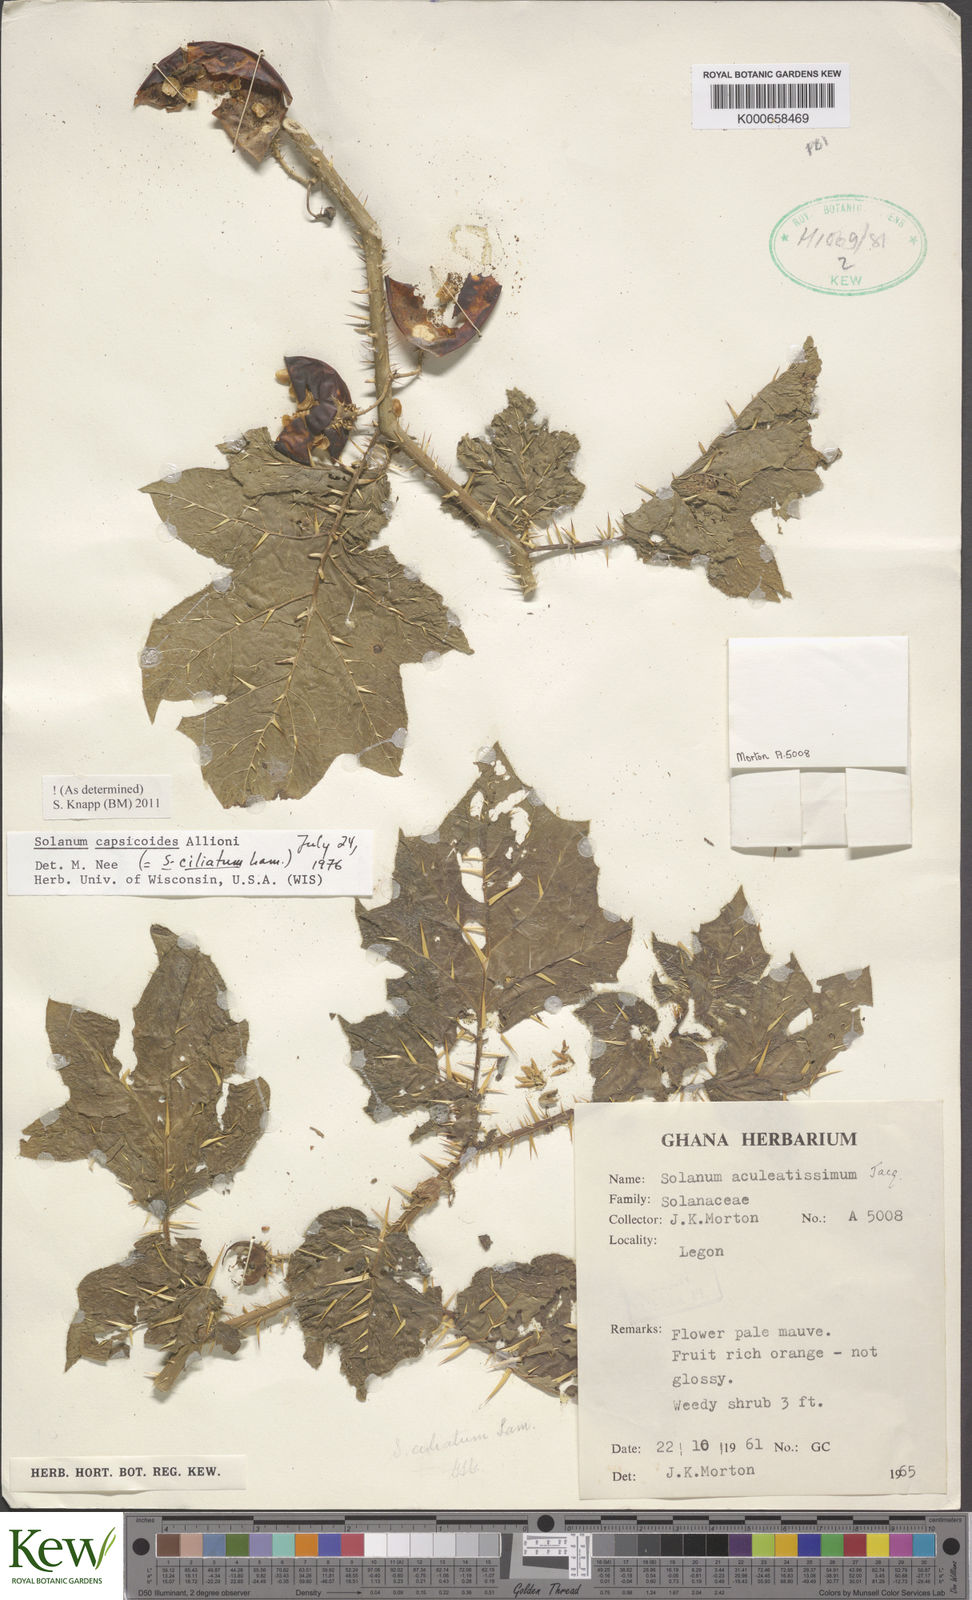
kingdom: Plantae
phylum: Tracheophyta
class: Magnoliopsida
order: Solanales
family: Solanaceae
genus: Solanum
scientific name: Solanum capsicoides
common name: Cockroach berry
